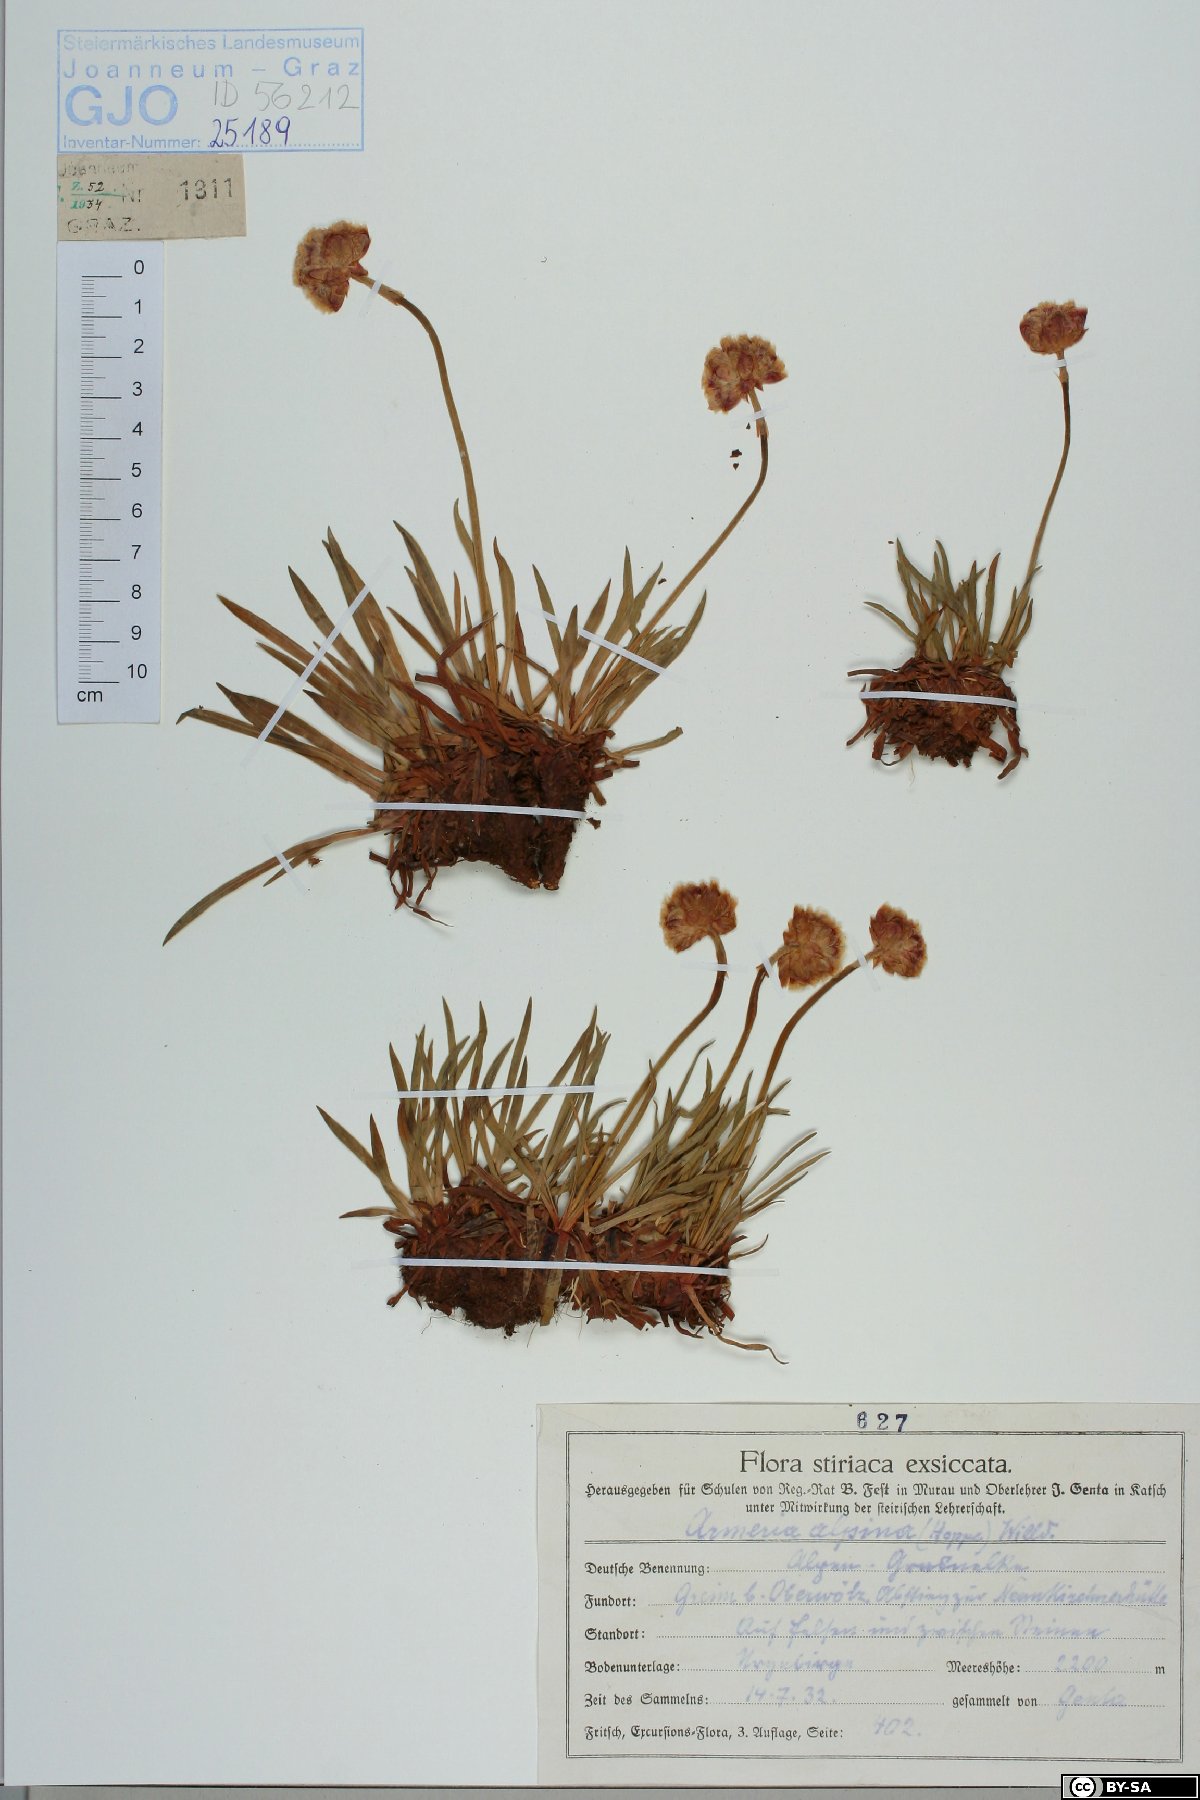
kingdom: Plantae
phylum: Tracheophyta
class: Magnoliopsida
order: Caryophyllales
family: Plumbaginaceae
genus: Armeria
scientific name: Armeria alpina
